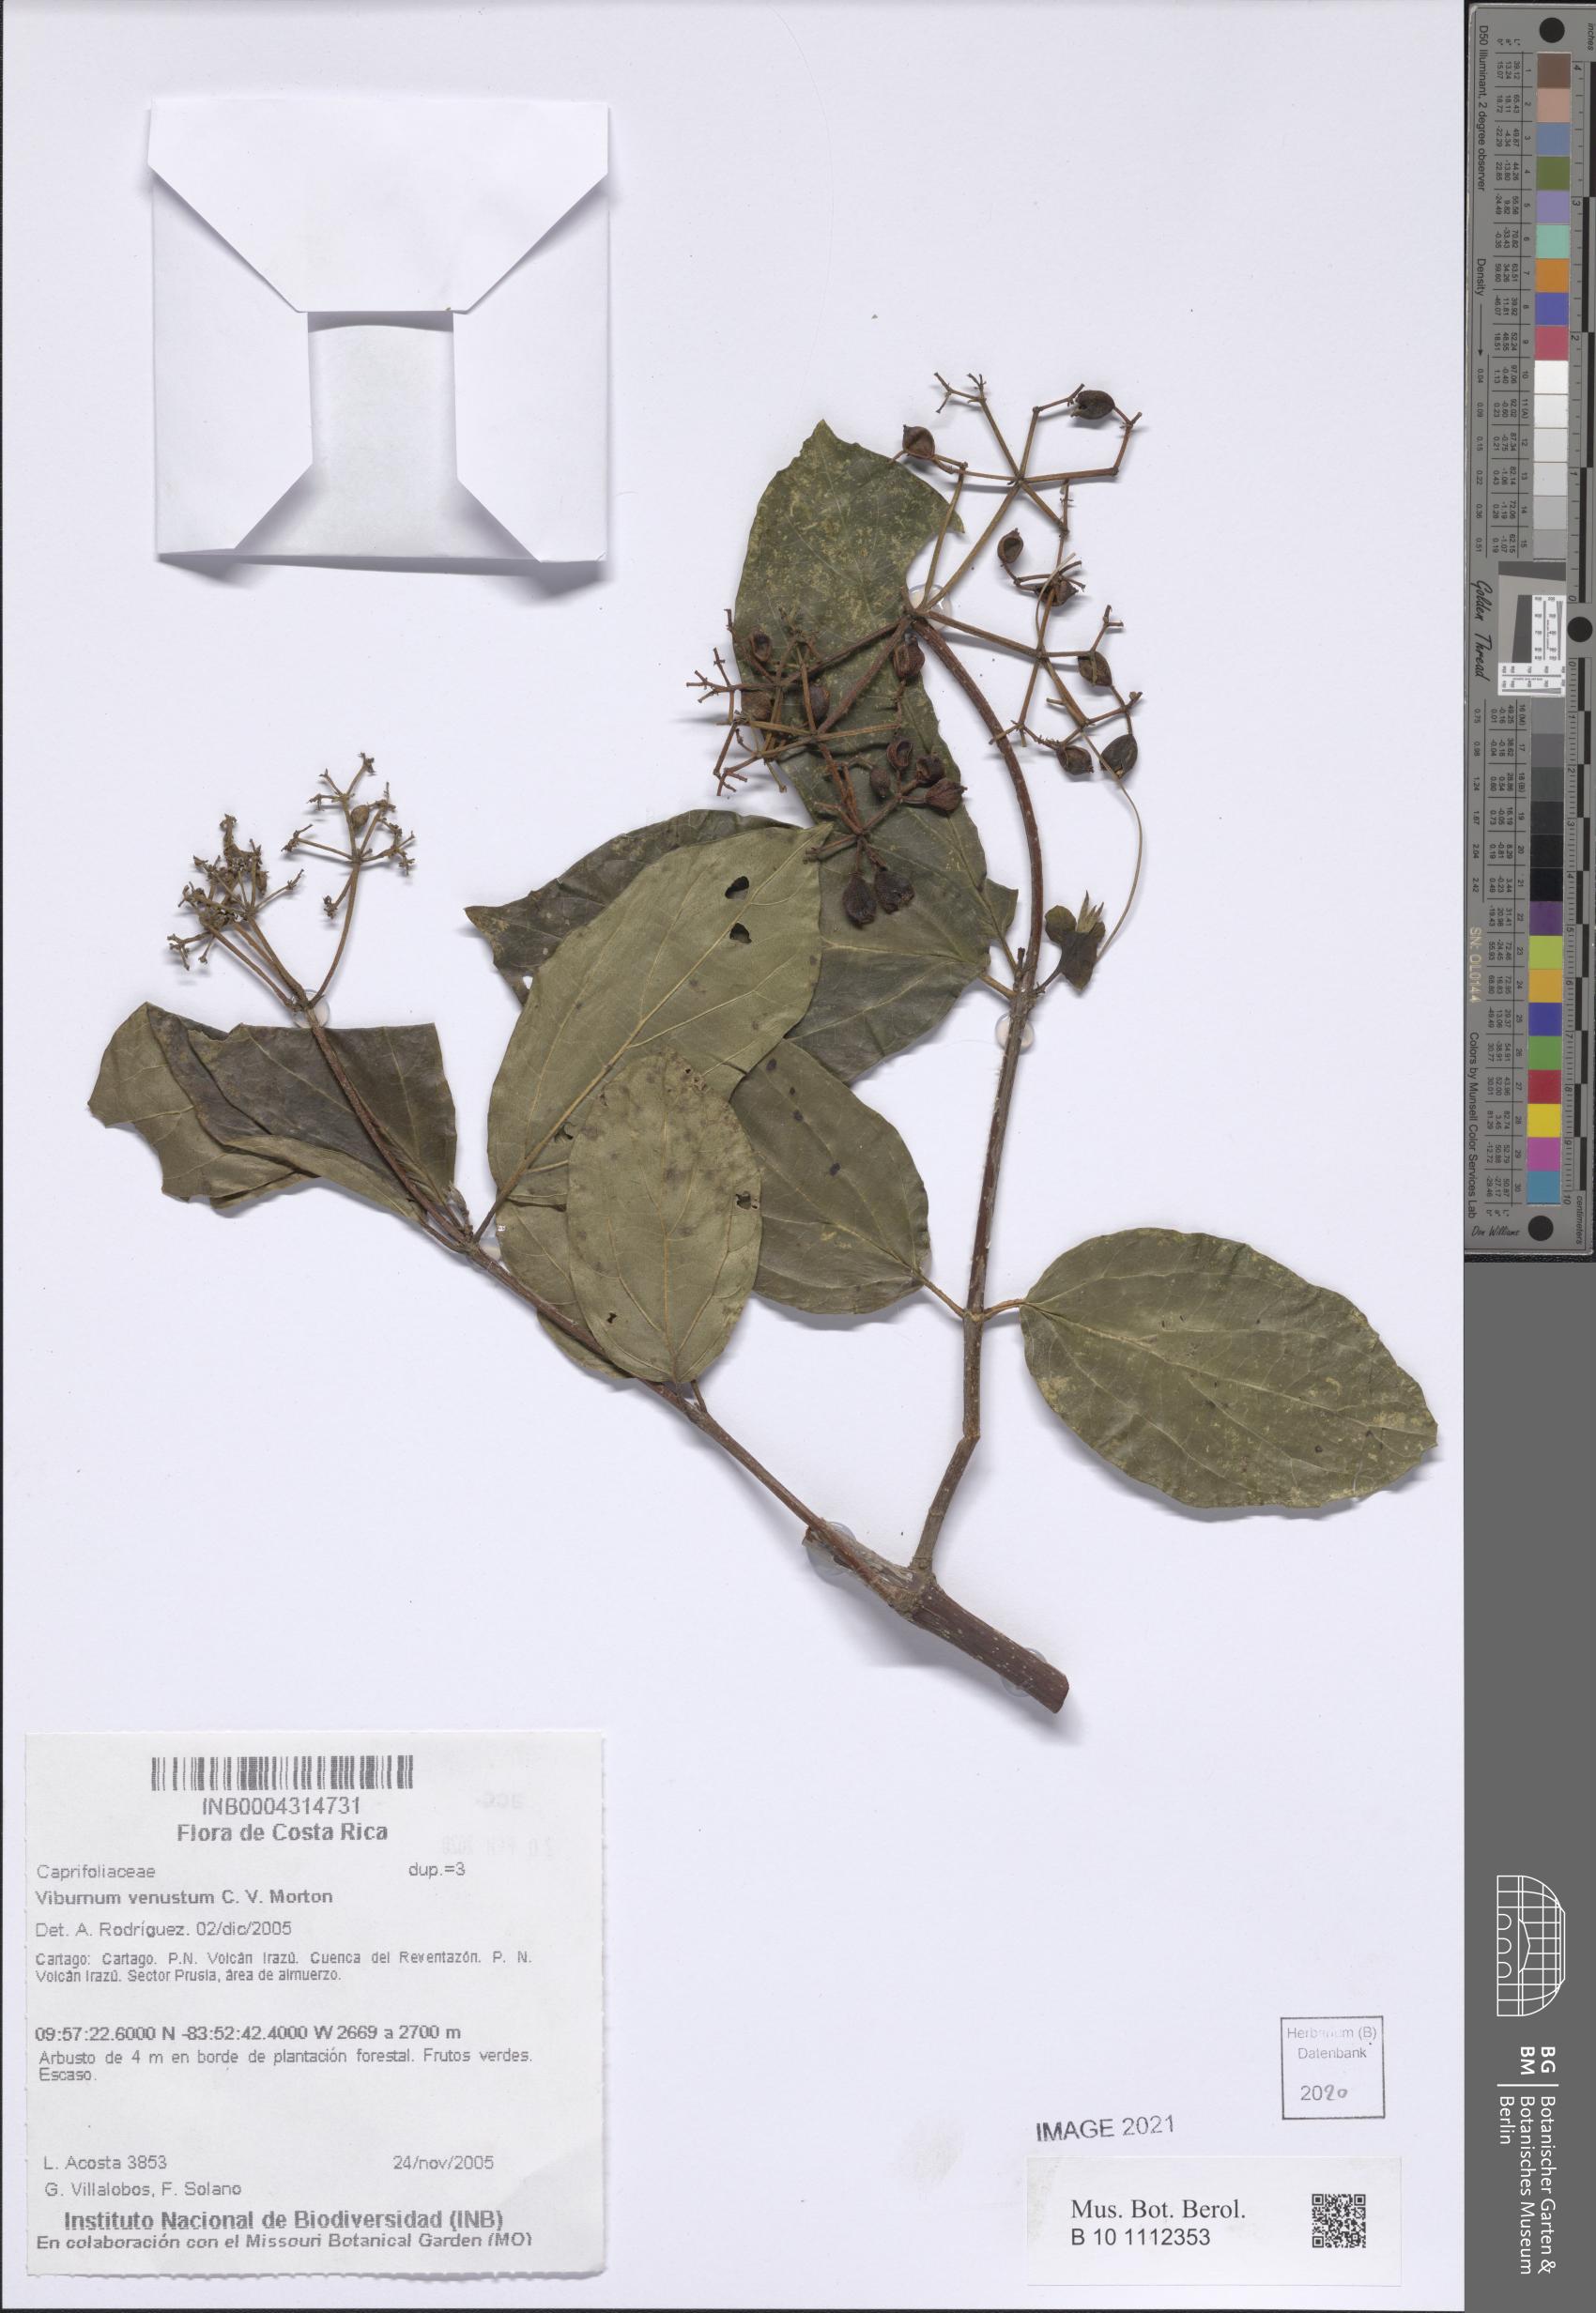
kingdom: Plantae
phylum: Tracheophyta
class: Magnoliopsida
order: Dipsacales
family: Viburnaceae
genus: Viburnum
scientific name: Viburnum venustum
